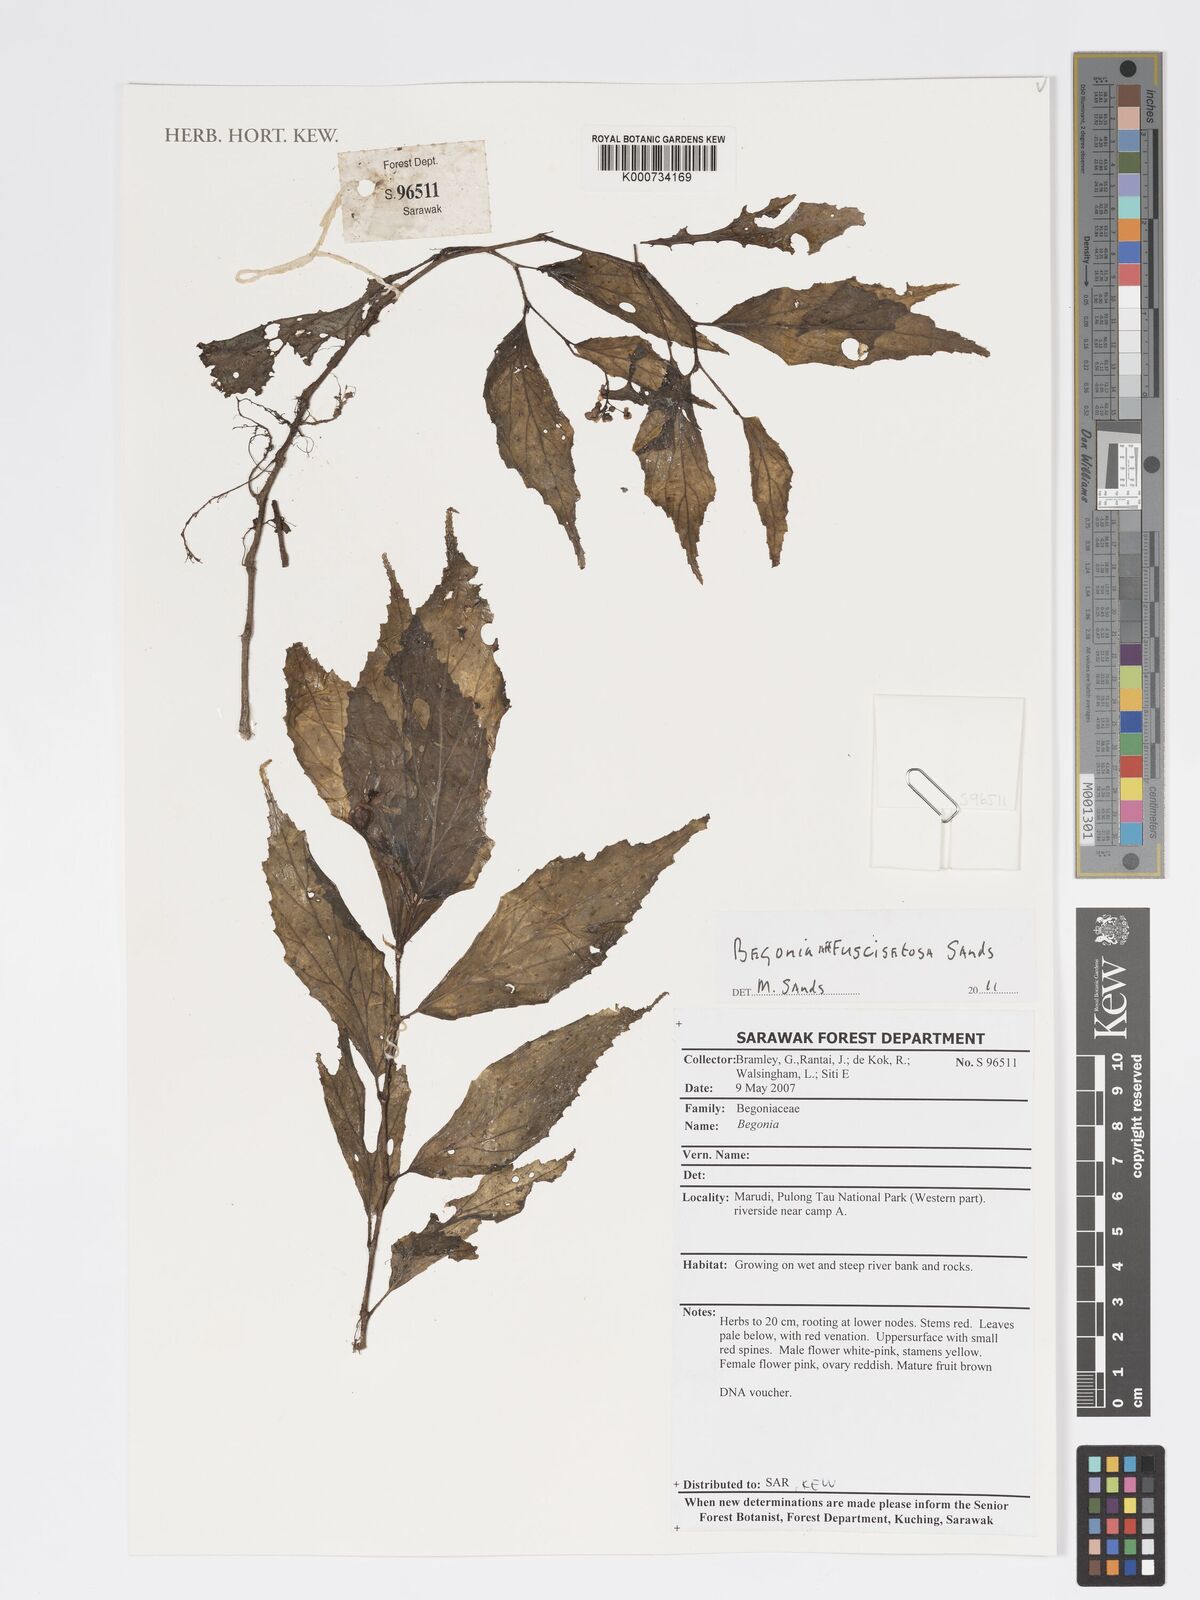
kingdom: Plantae
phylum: Tracheophyta
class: Magnoliopsida
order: Cucurbitales
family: Begoniaceae
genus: Begonia
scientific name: Begonia fuscisetosa
